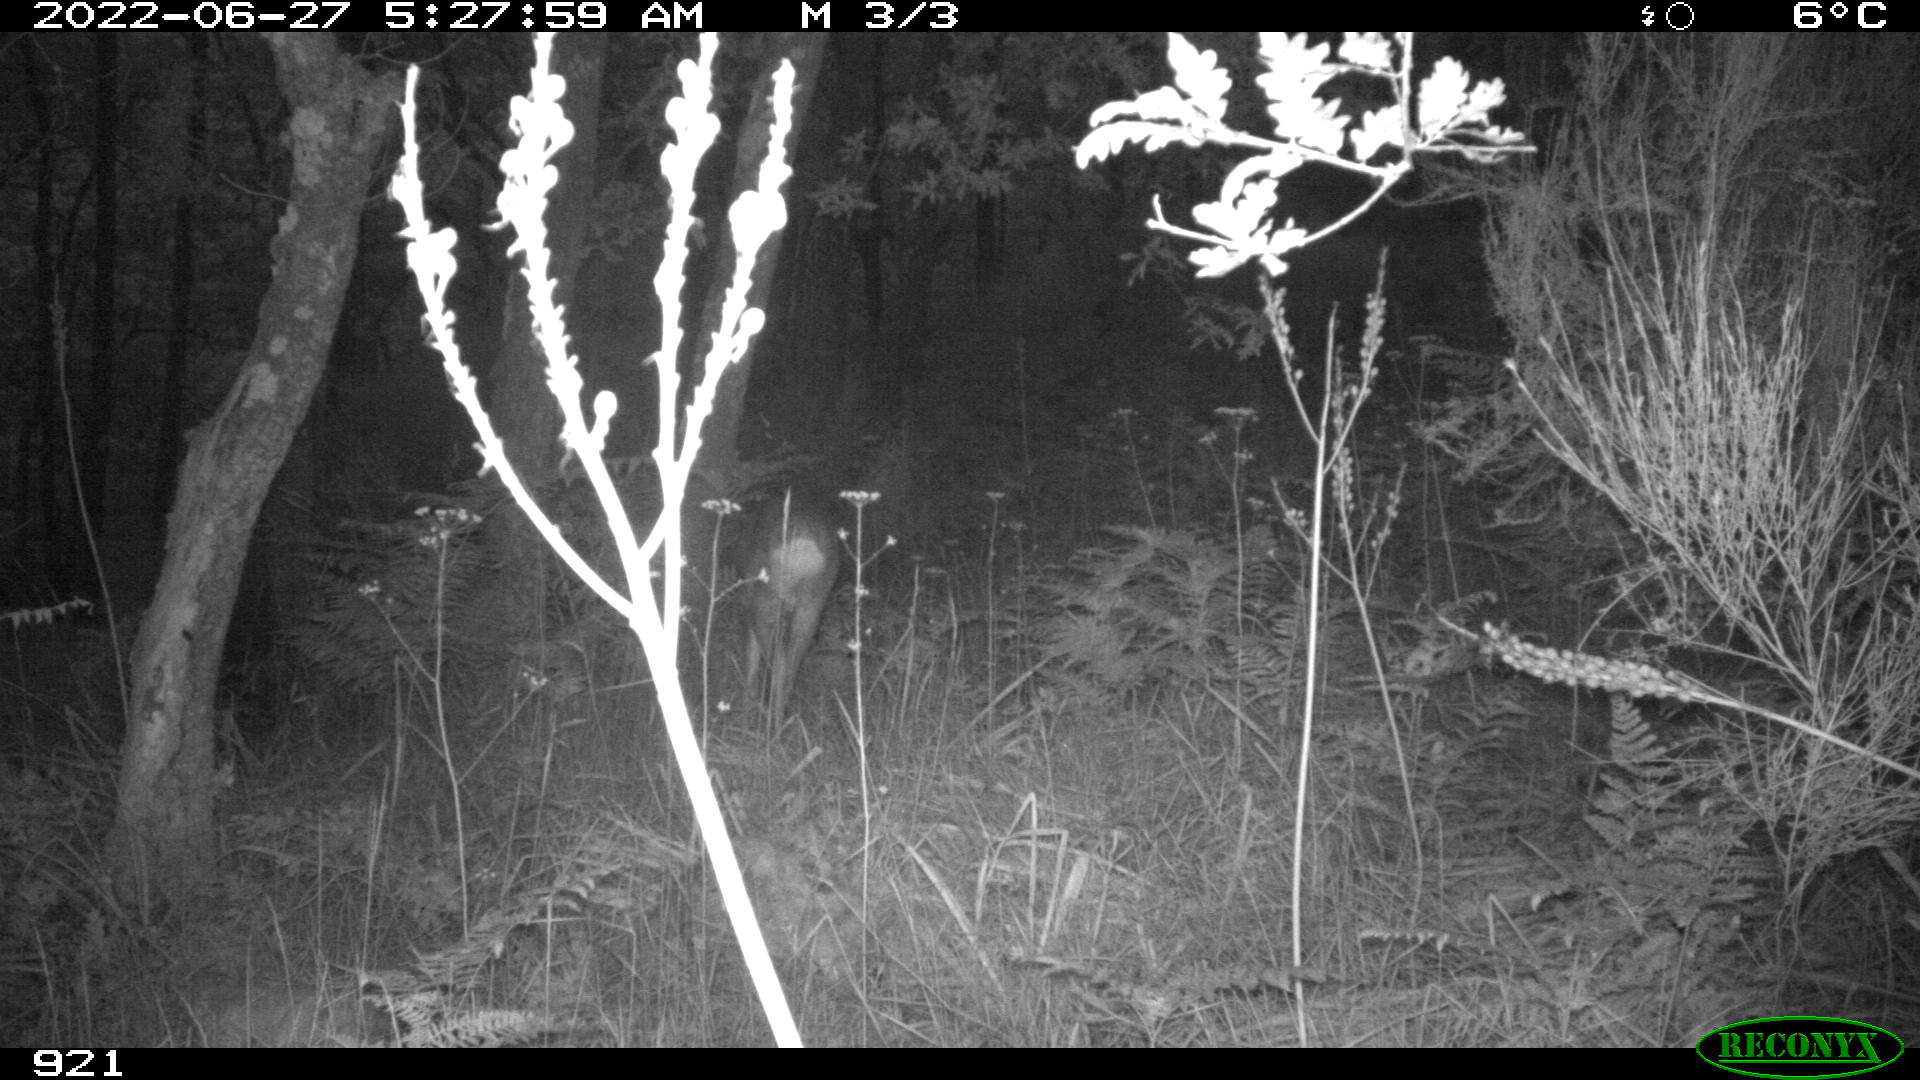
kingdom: Animalia
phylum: Chordata
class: Mammalia
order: Artiodactyla
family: Cervidae
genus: Capreolus
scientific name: Capreolus capreolus
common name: Western roe deer
